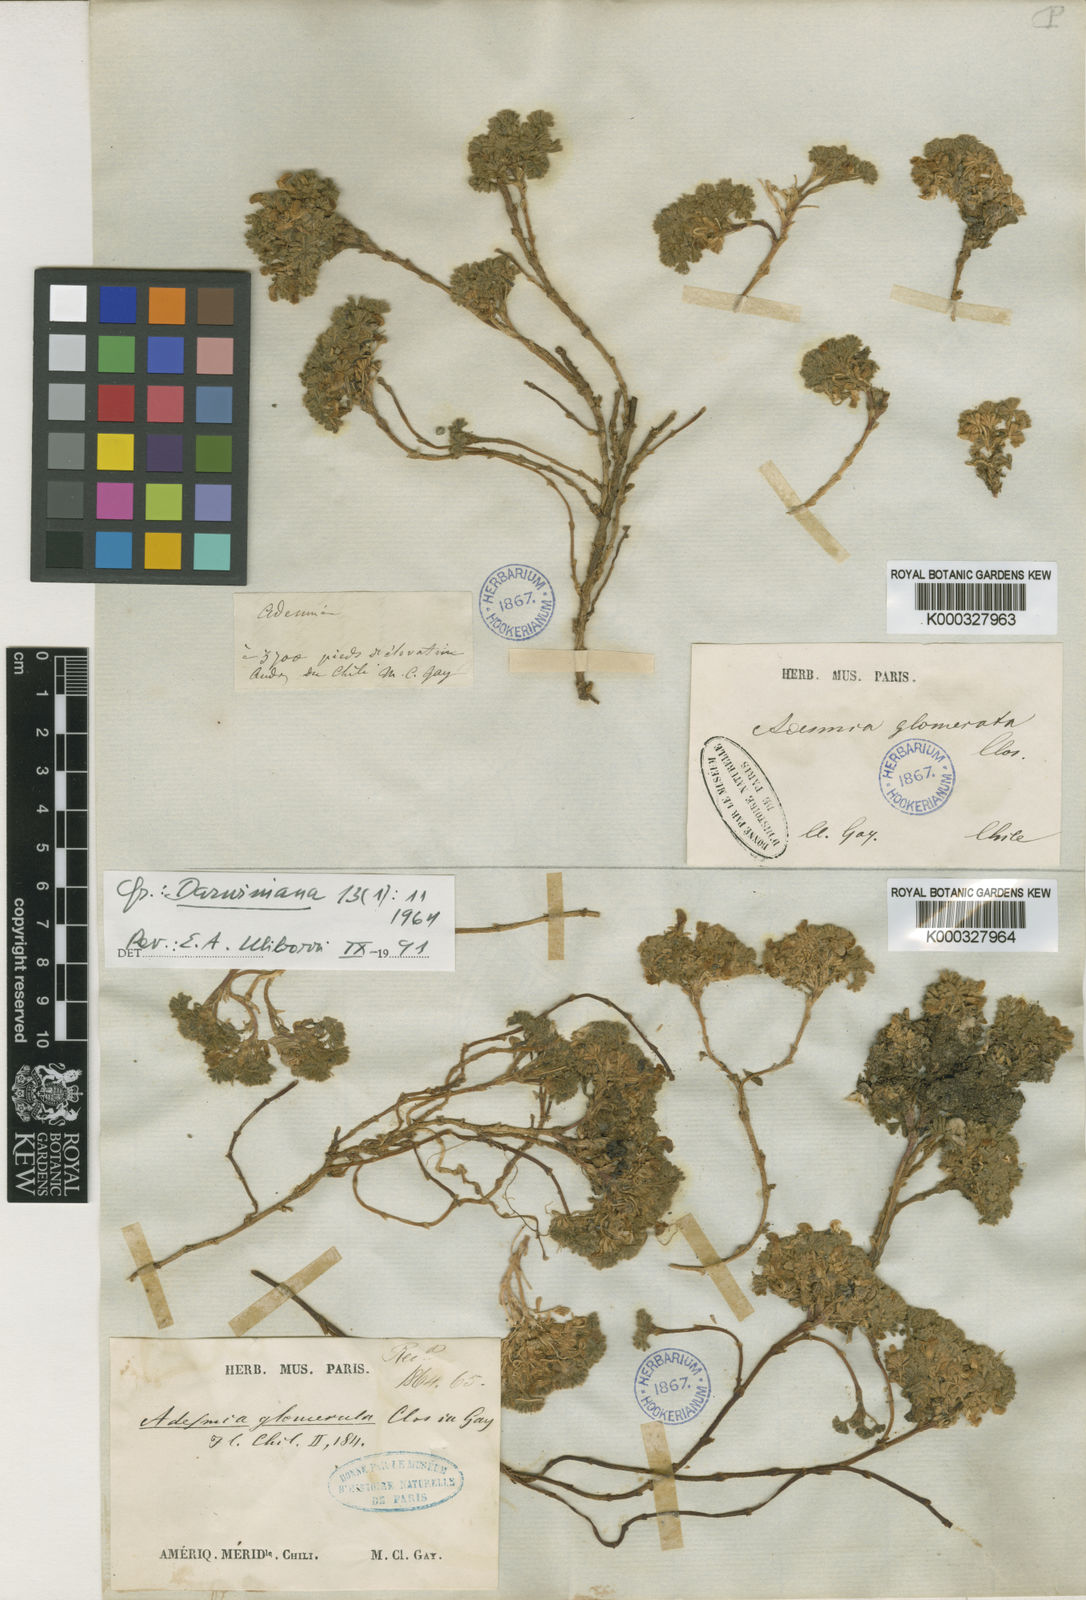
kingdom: Plantae
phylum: Tracheophyta
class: Magnoliopsida
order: Fabales
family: Fabaceae
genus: Adesmia
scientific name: Adesmia glomerula
